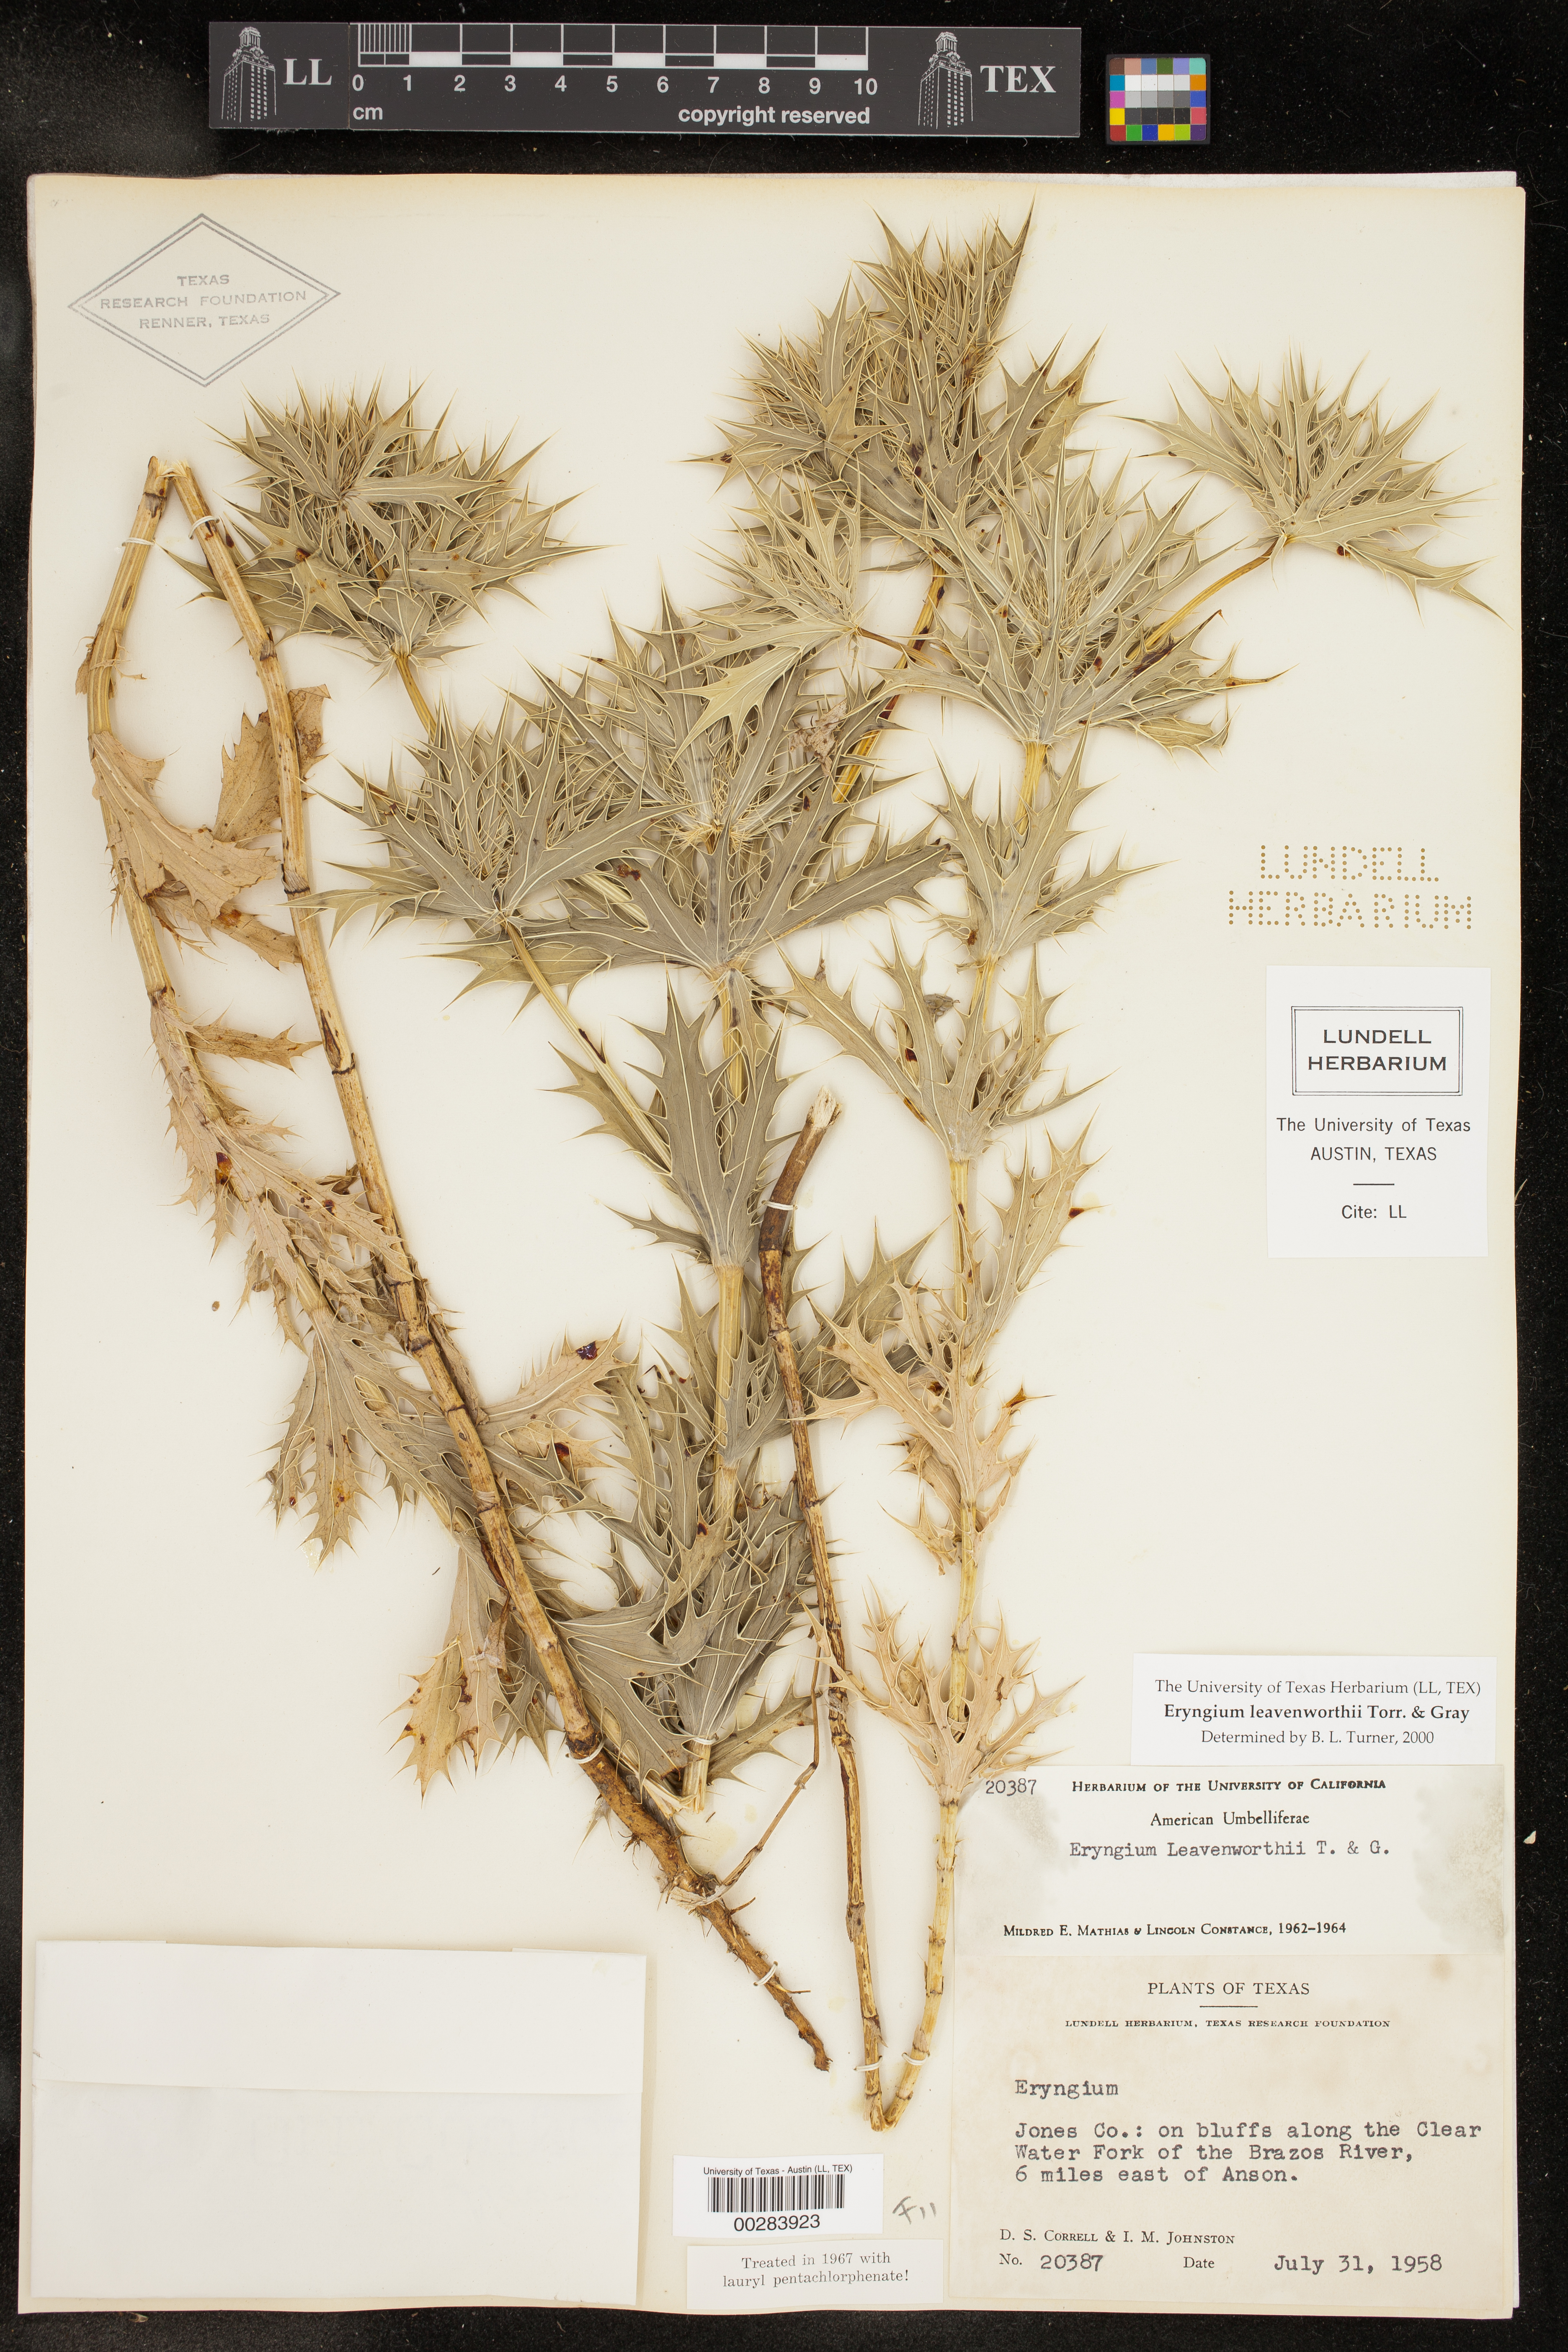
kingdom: Plantae
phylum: Tracheophyta
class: Magnoliopsida
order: Apiales
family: Apiaceae
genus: Eryngium
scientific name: Eryngium leavenworthii
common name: Leavenworth's eryngo
